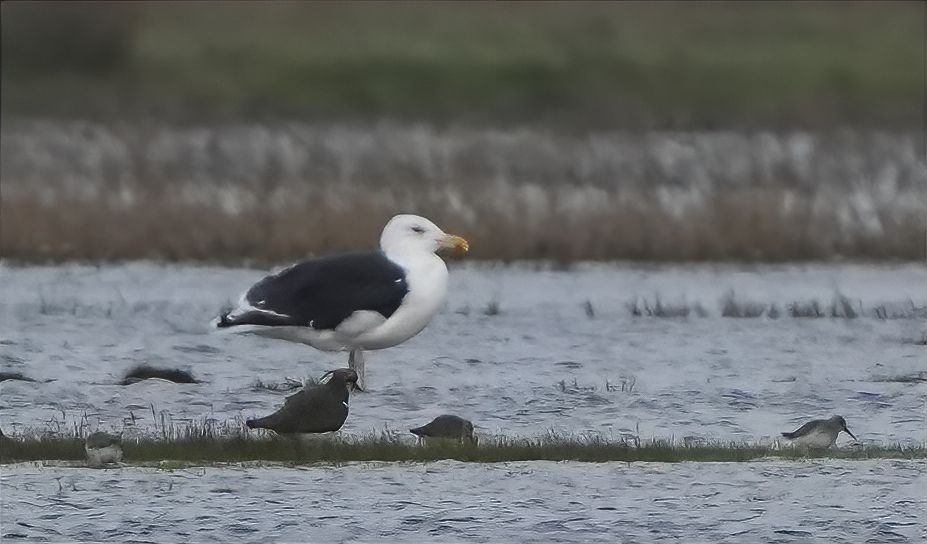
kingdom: Animalia
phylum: Chordata
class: Aves
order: Charadriiformes
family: Laridae
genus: Larus
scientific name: Larus marinus
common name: Svartbag
